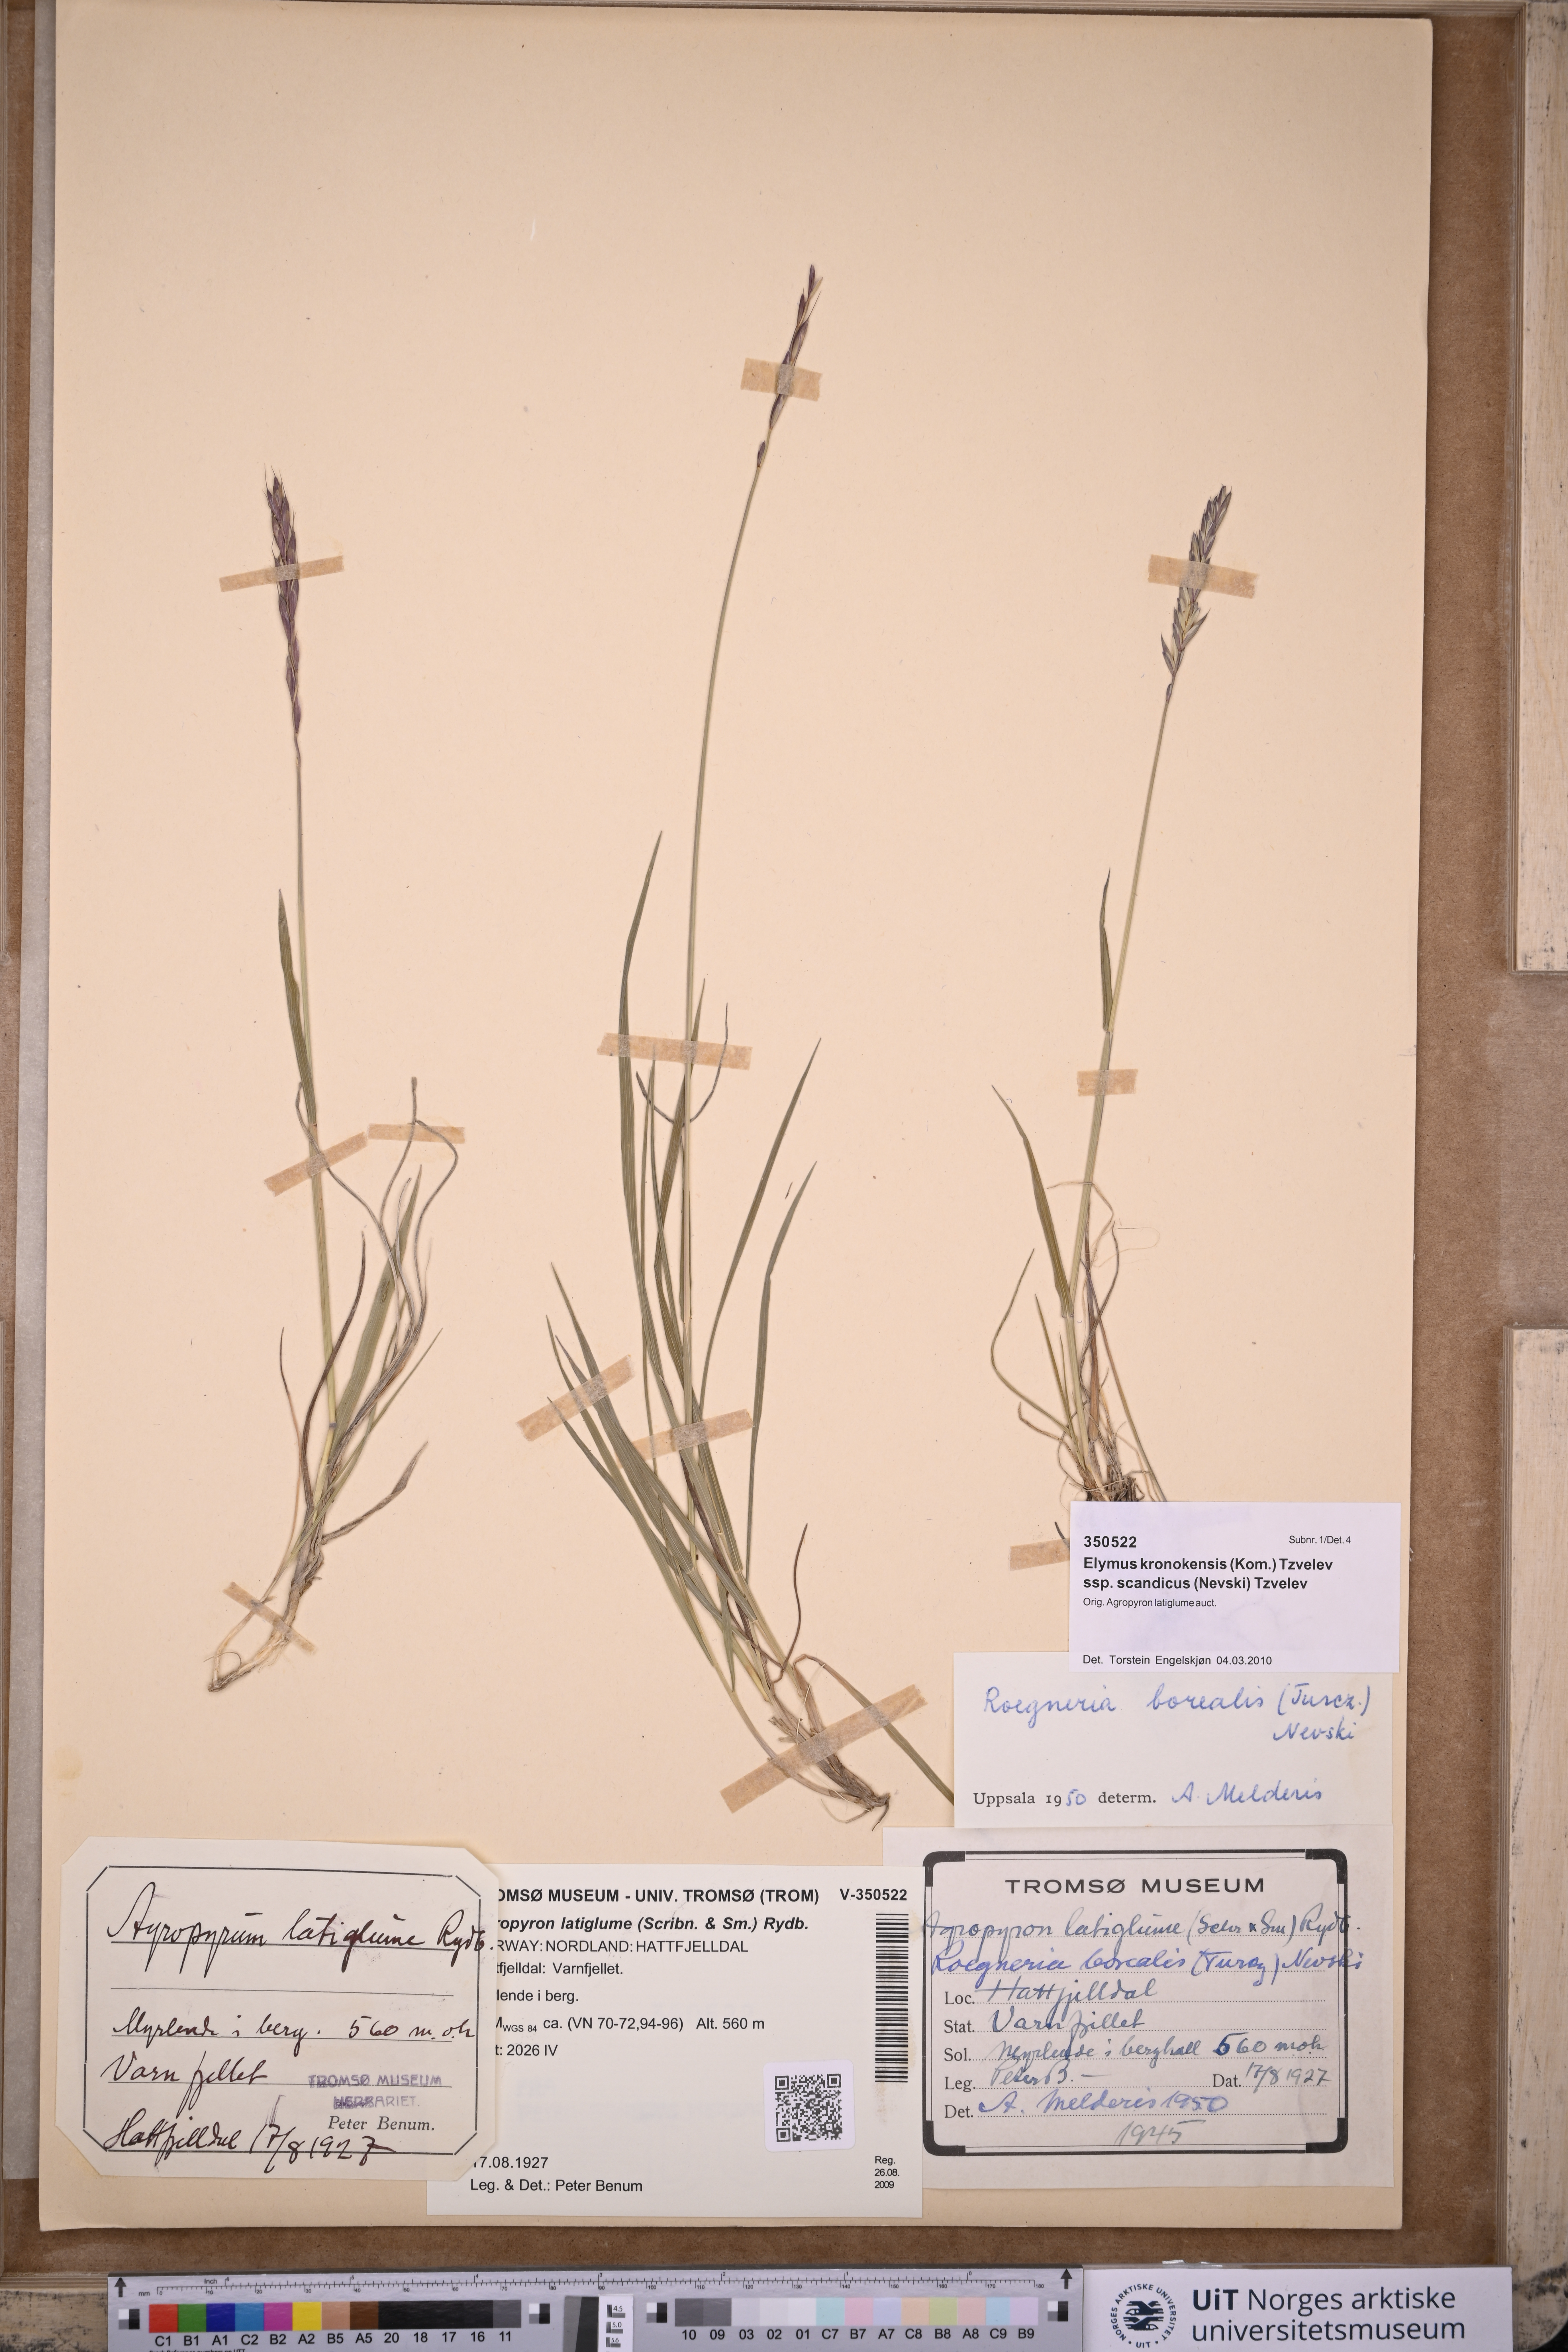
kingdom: Plantae
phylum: Tracheophyta
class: Liliopsida
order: Poales
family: Poaceae
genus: Elymus
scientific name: Elymus macrourus
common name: Northern wheatgrass
